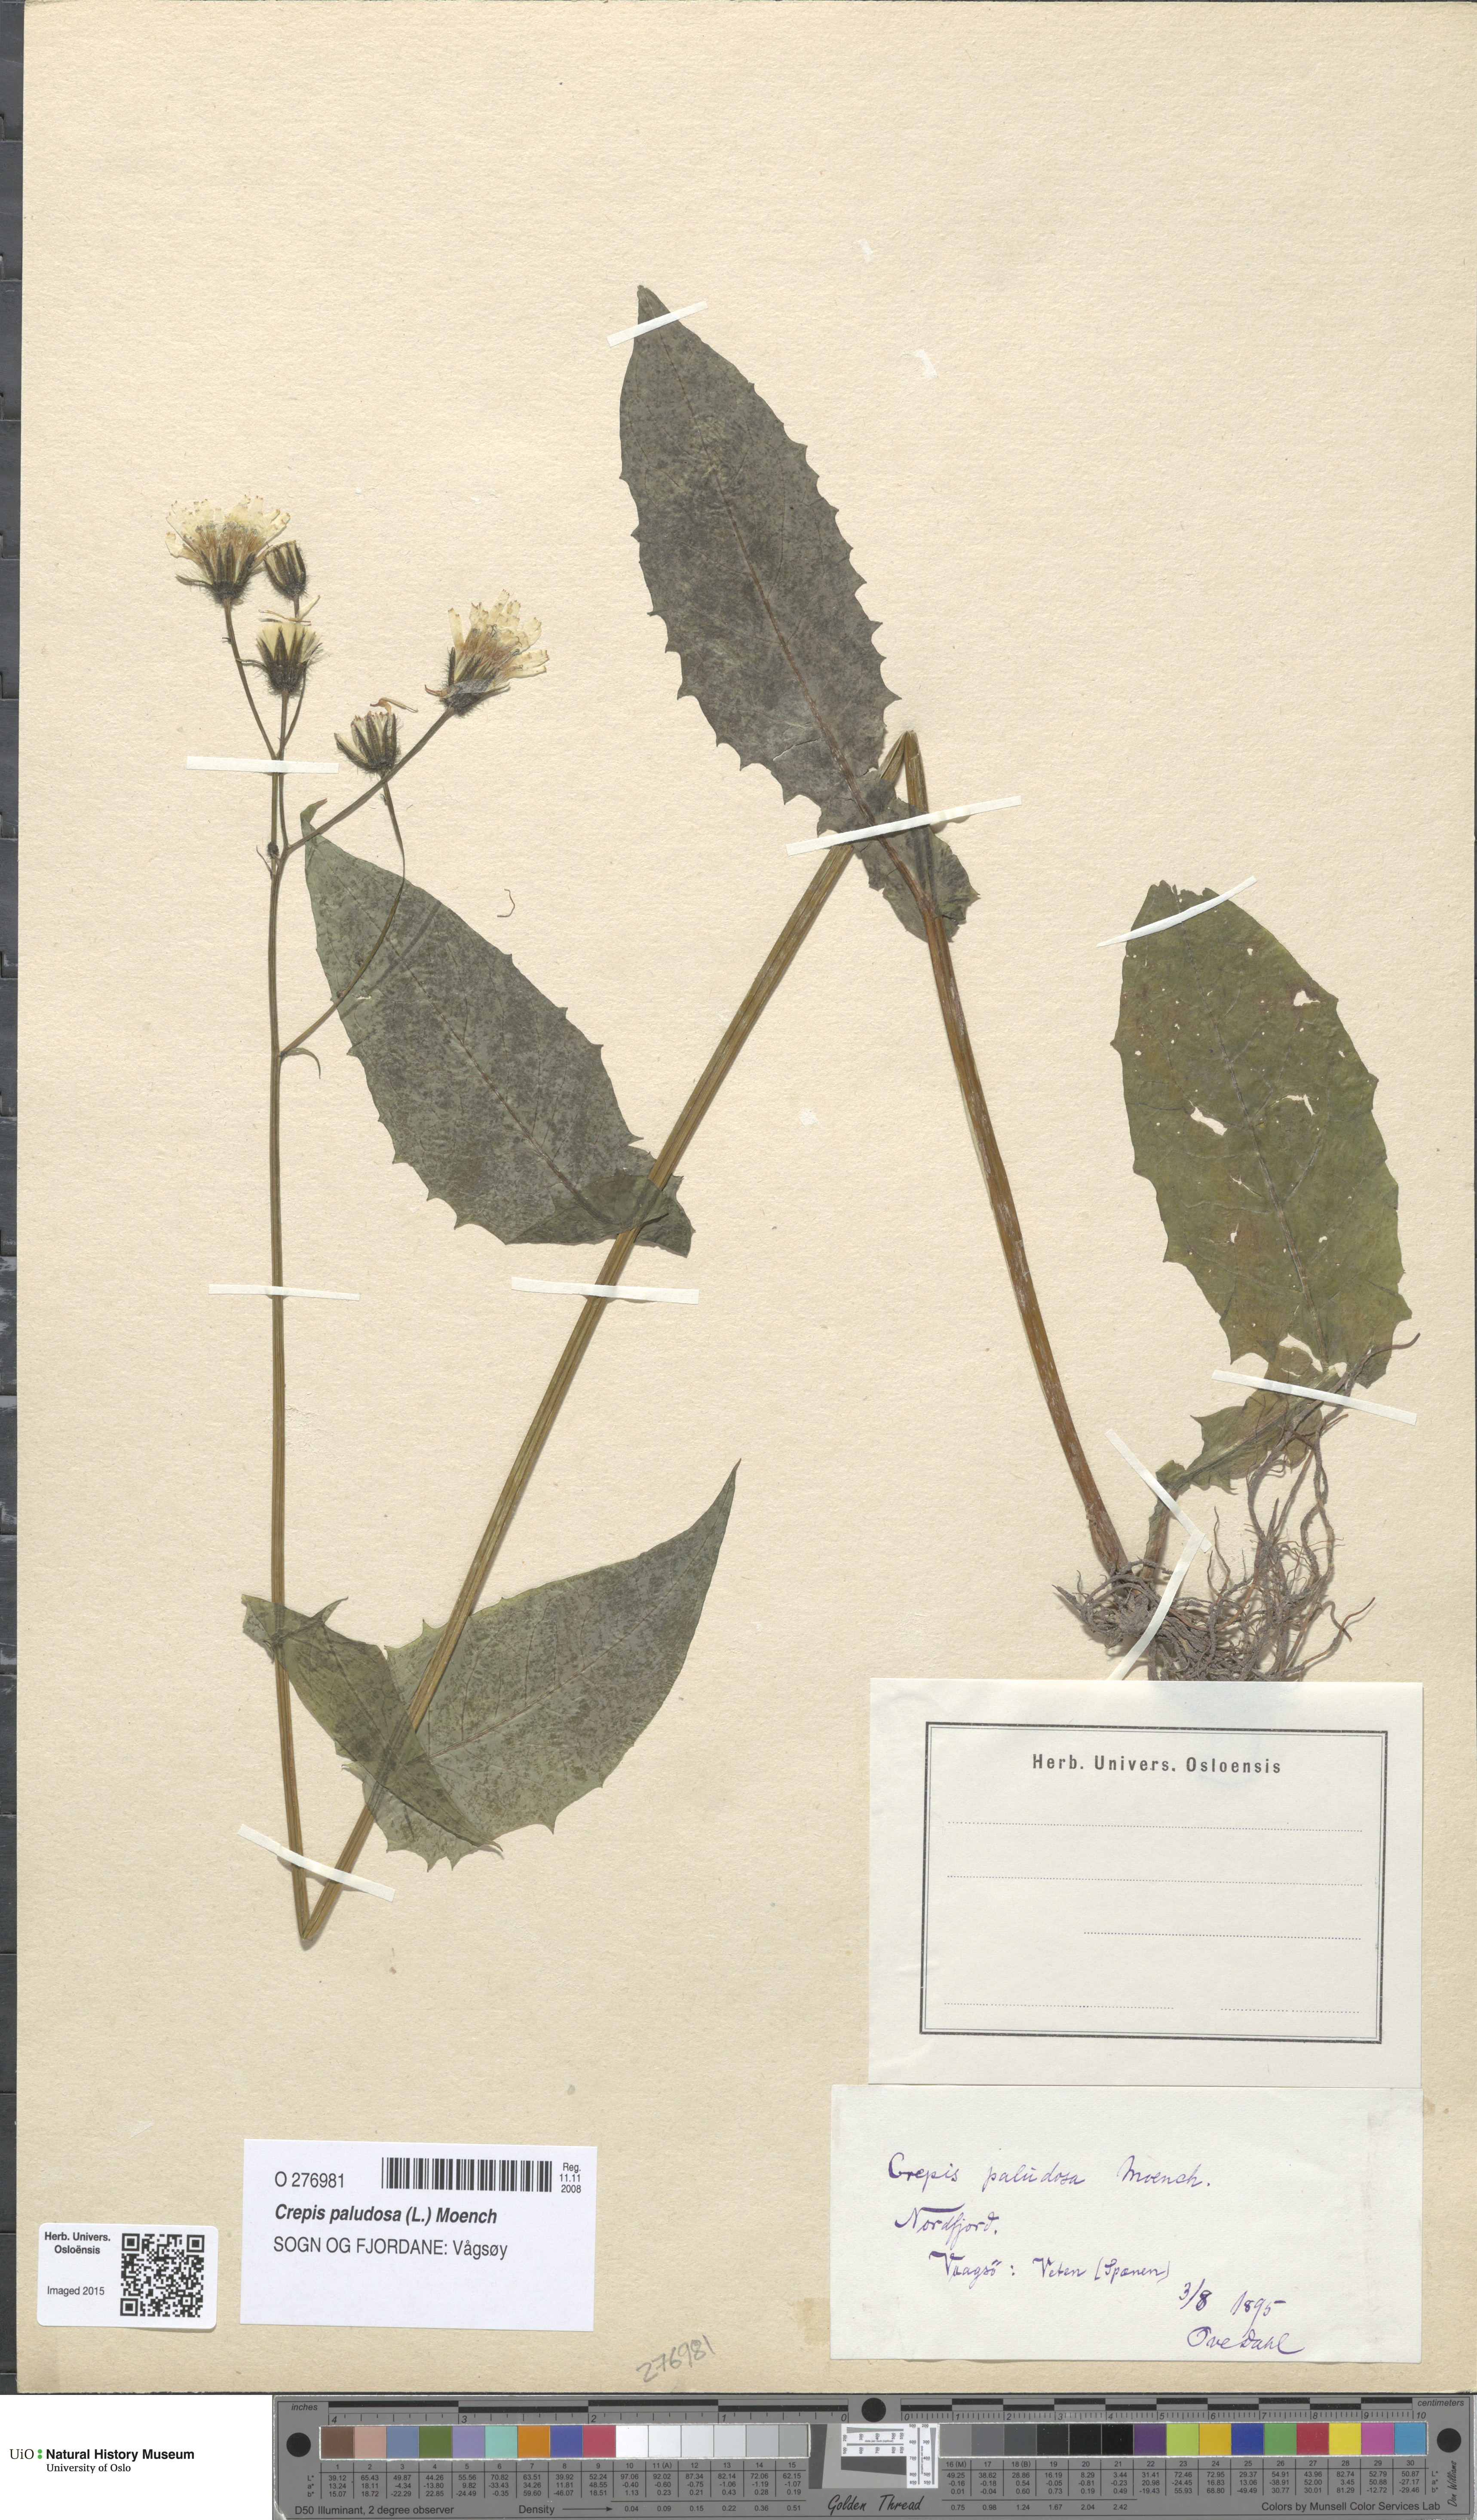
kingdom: Plantae
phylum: Tracheophyta
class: Magnoliopsida
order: Asterales
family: Asteraceae
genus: Crepis
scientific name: Crepis paludosa
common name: Marsh hawk's-beard
